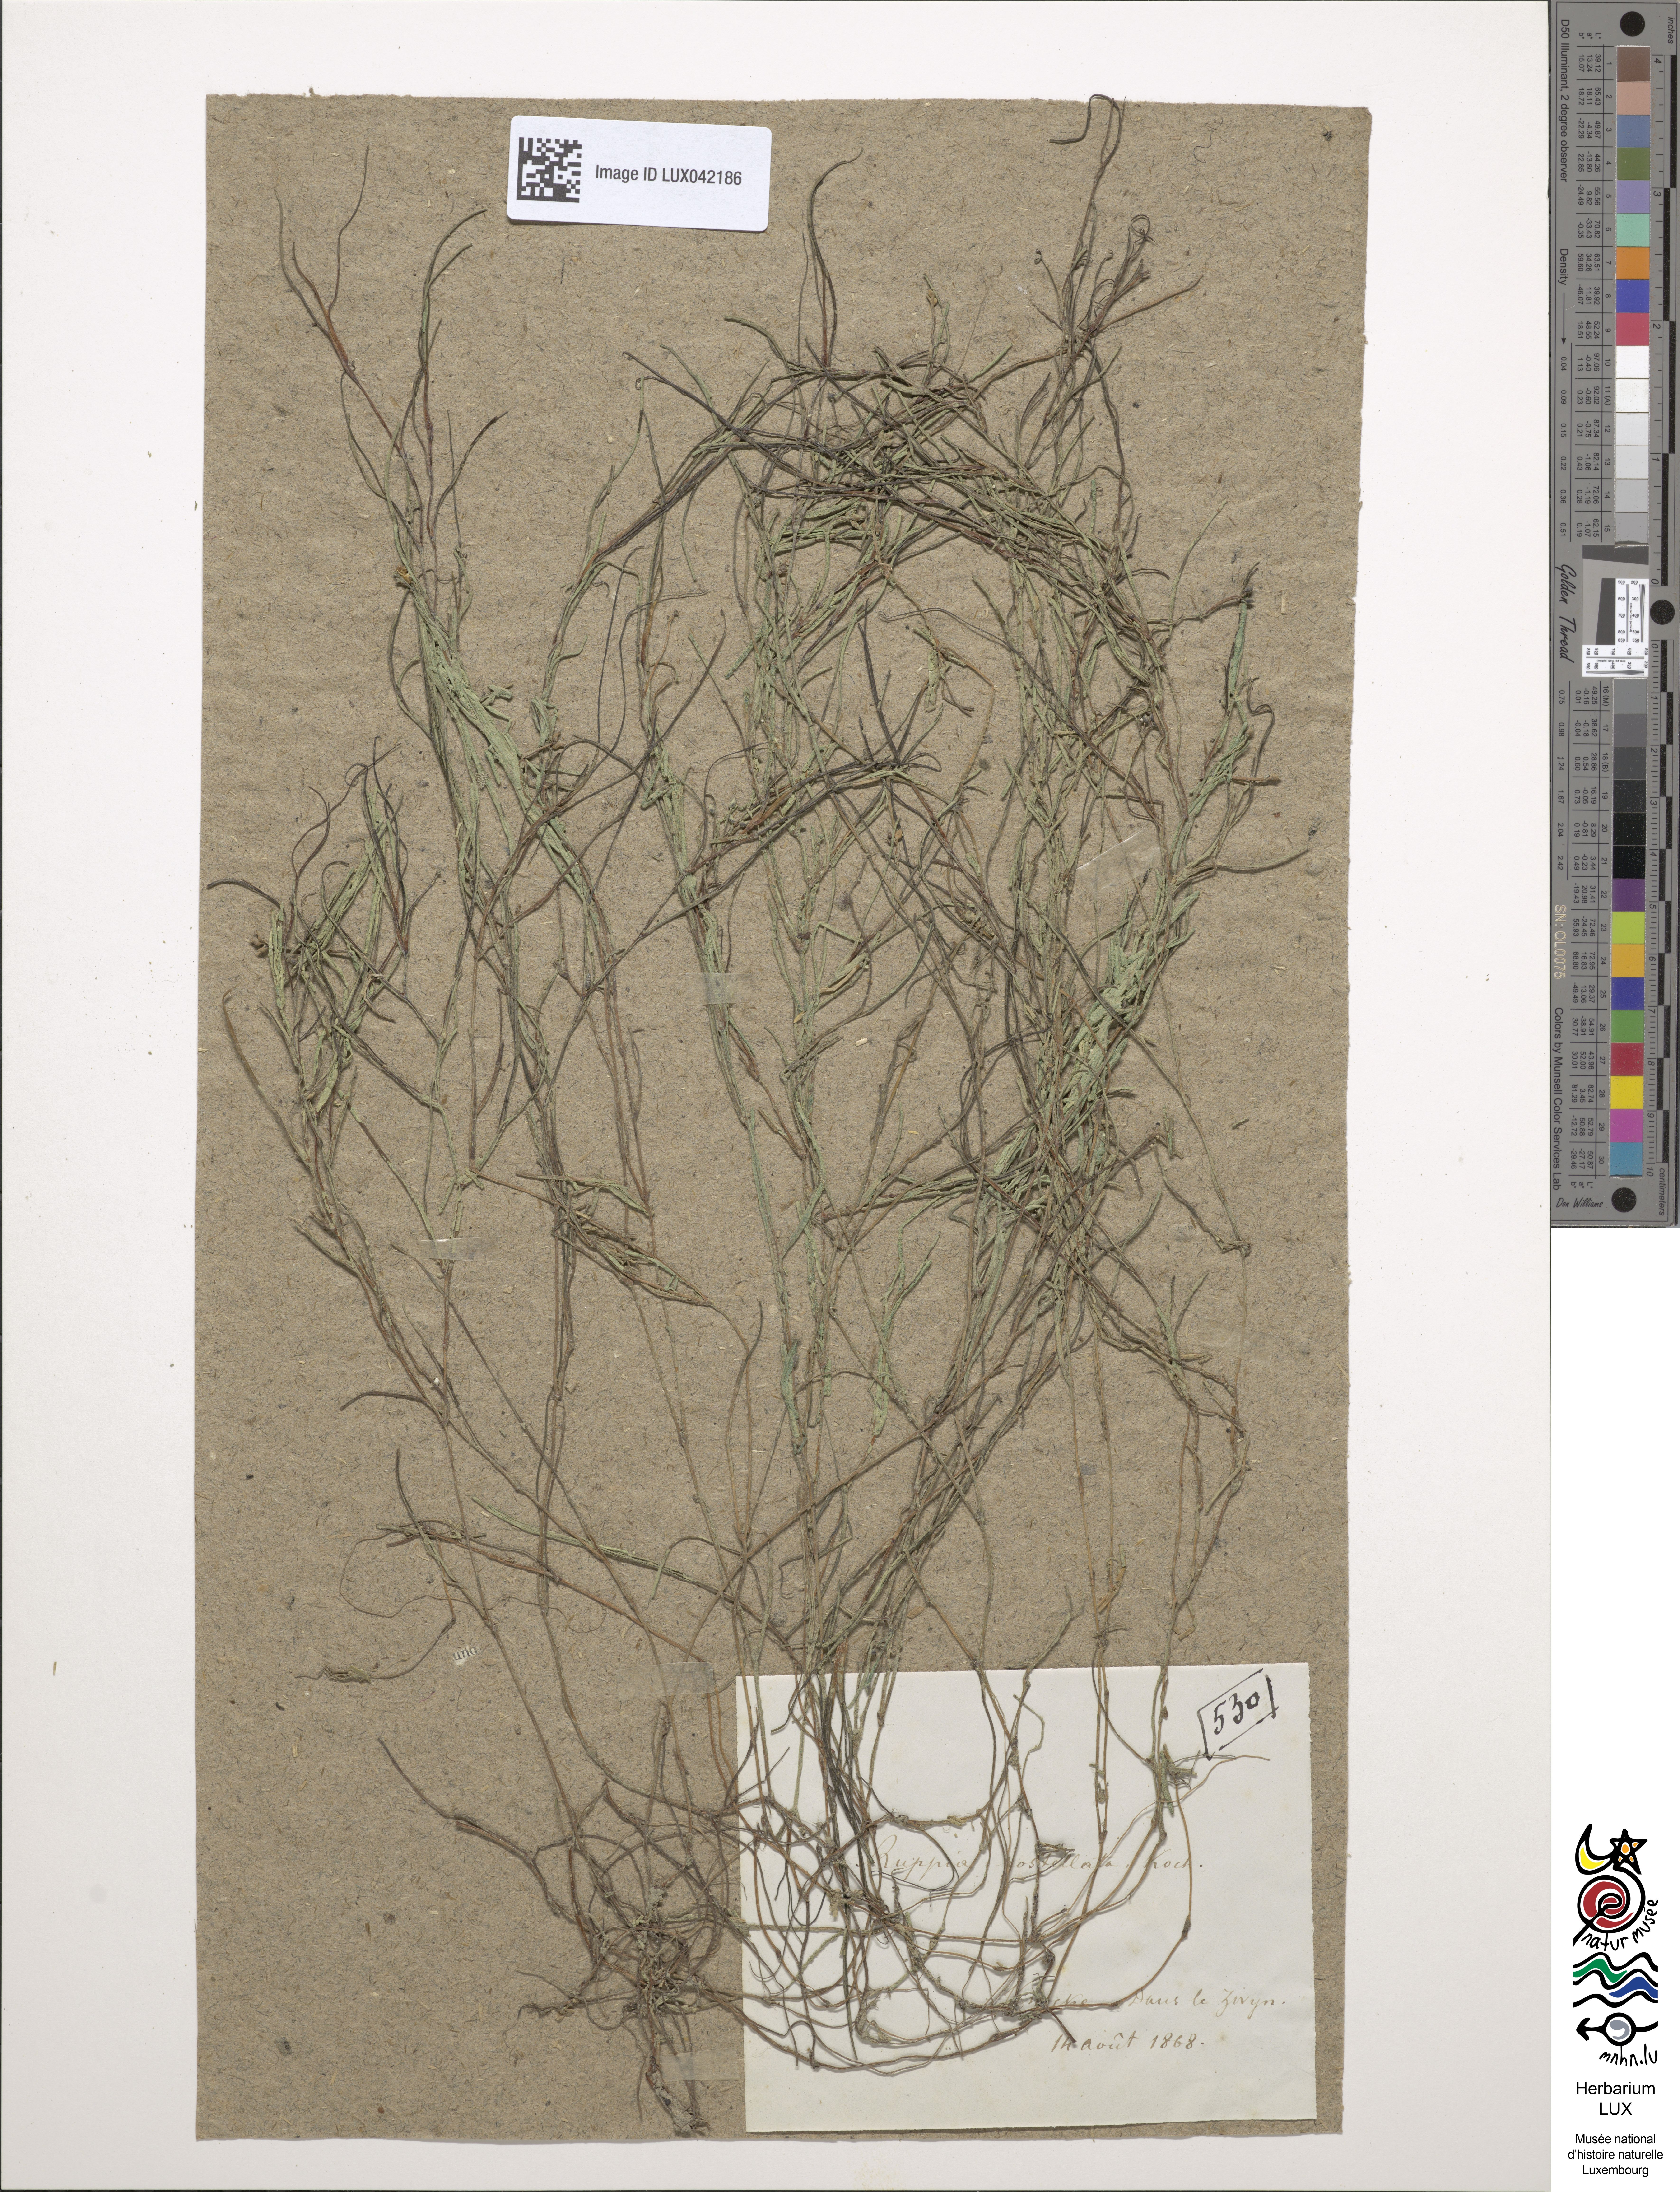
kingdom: Plantae
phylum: Tracheophyta
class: Liliopsida
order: Alismatales
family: Ruppiaceae
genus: Ruppia
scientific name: Ruppia maritima
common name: Beaked tasselweed
